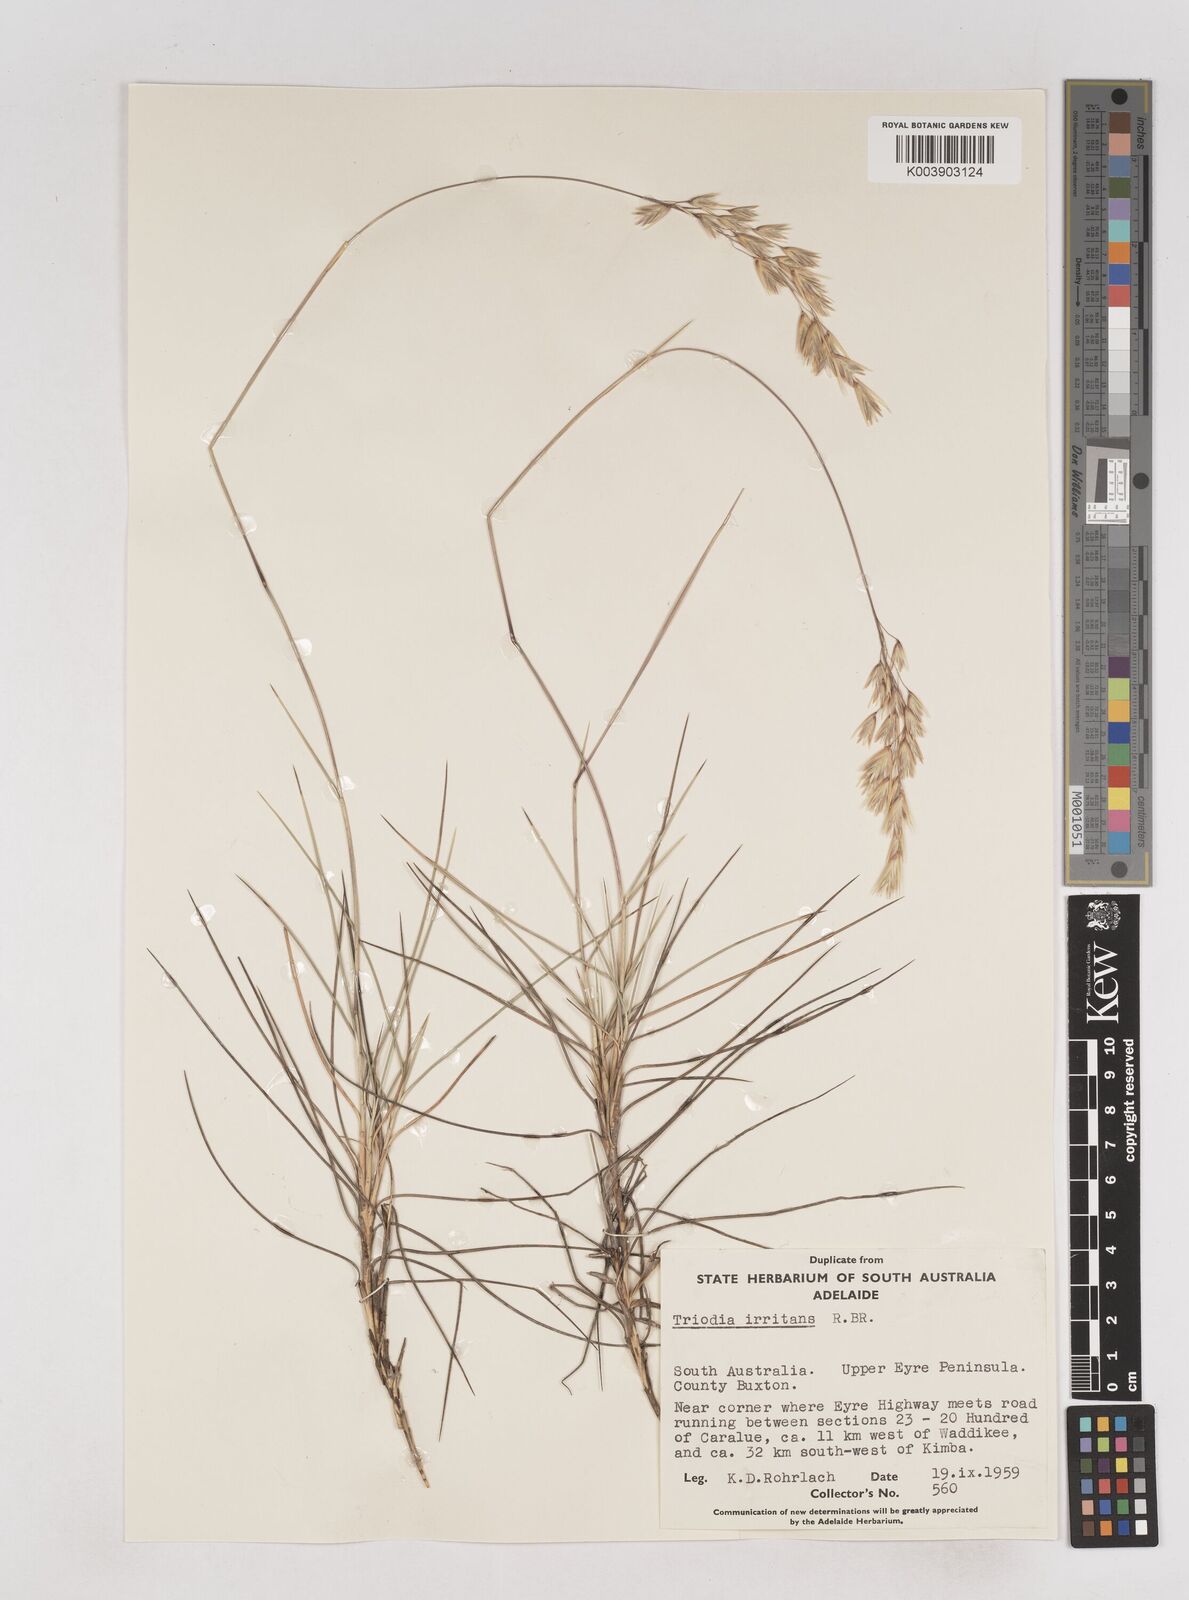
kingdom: Plantae
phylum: Tracheophyta
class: Liliopsida
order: Poales
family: Poaceae
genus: Triodia
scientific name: Triodia irritans
